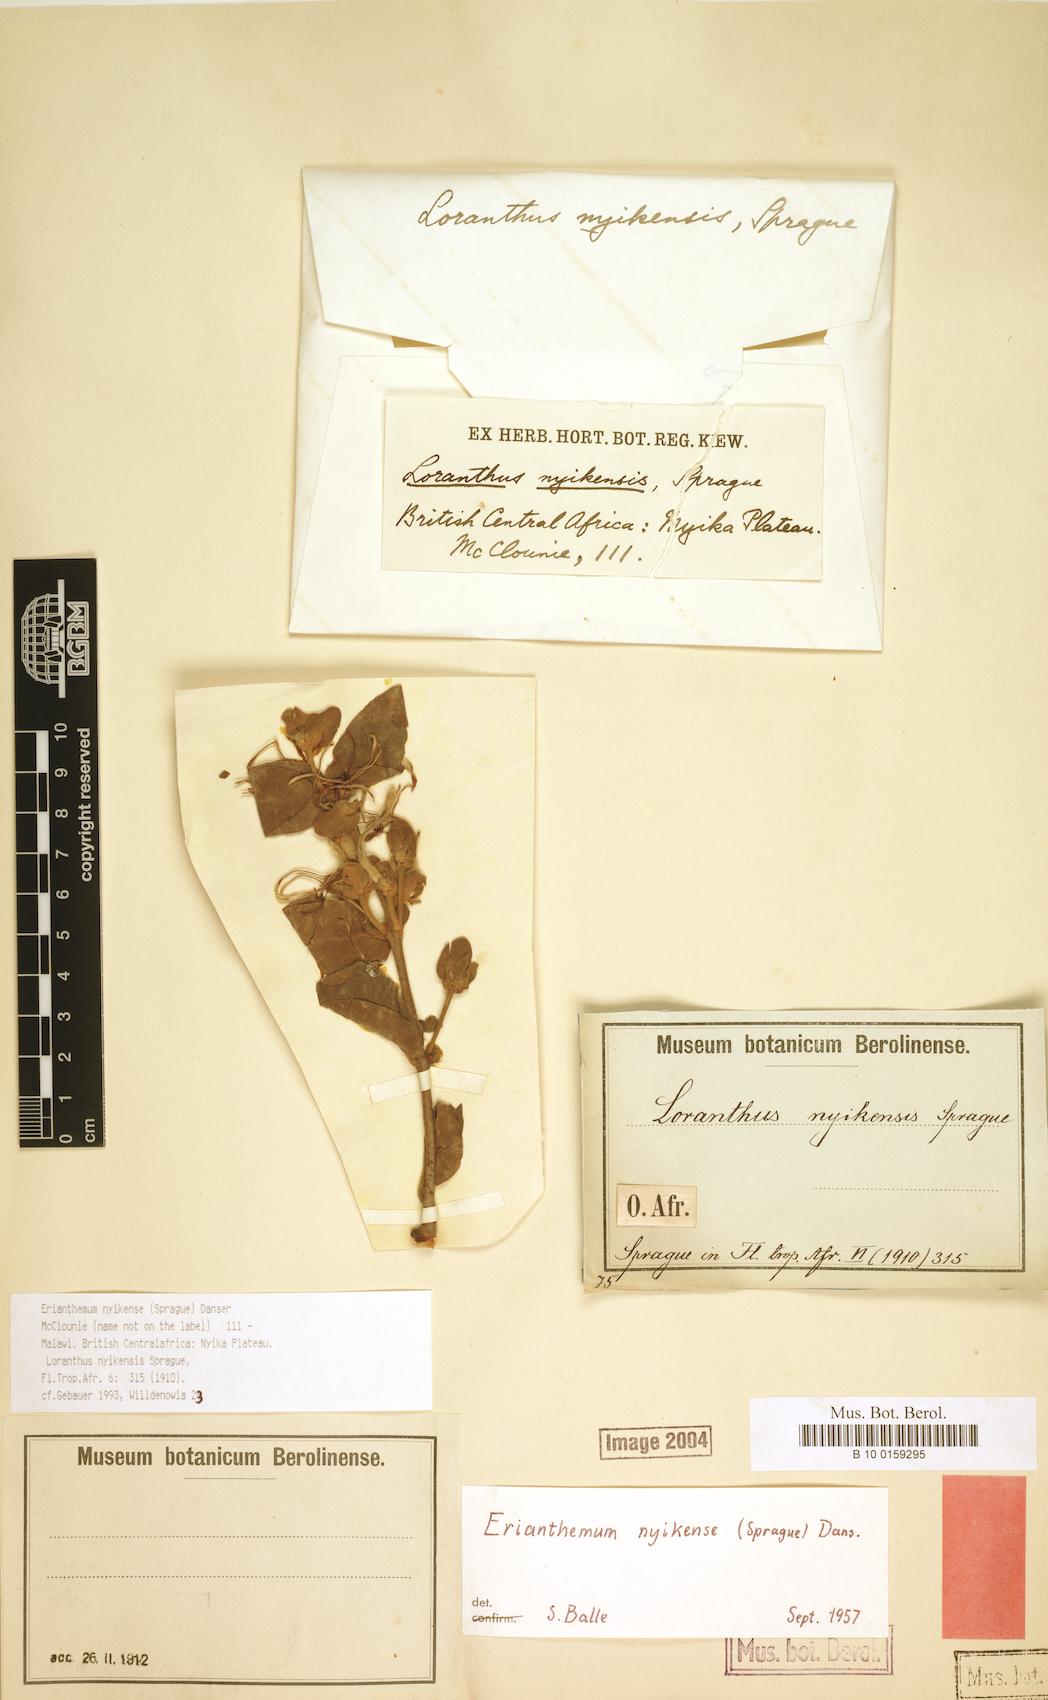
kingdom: Plantae
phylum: Tracheophyta
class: Magnoliopsida
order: Santalales
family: Loranthaceae
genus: Erianthemum
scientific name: Erianthemum nyikense
